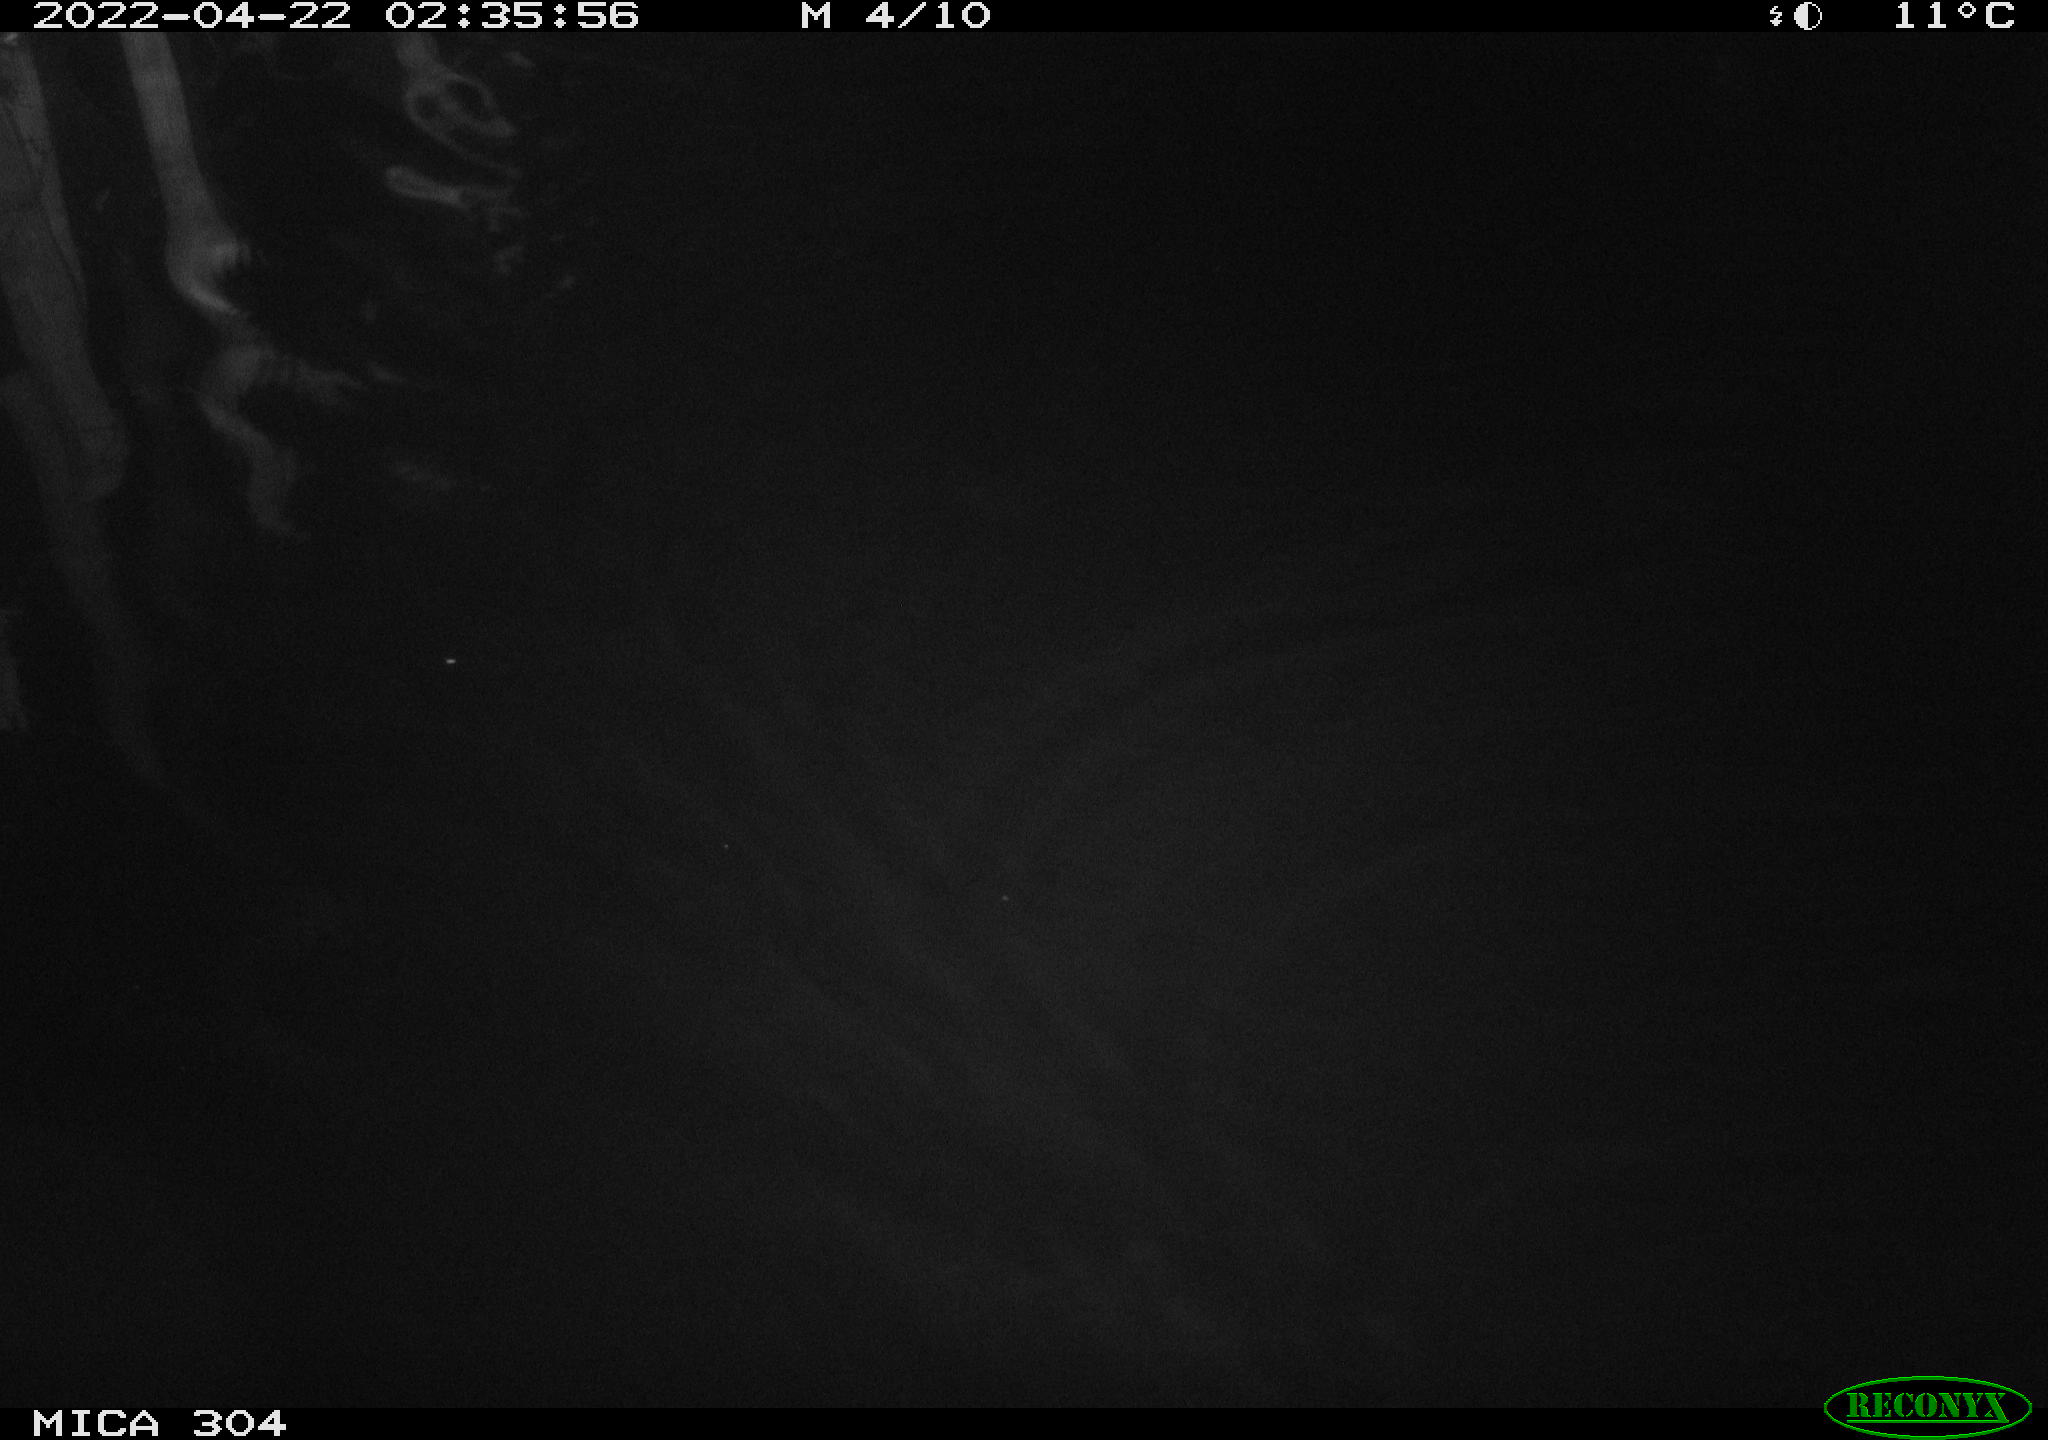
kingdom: Animalia
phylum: Chordata
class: Mammalia
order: Rodentia
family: Cricetidae
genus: Ondatra
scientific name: Ondatra zibethicus
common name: Muskrat
